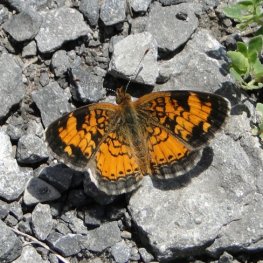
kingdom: Animalia
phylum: Arthropoda
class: Insecta
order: Lepidoptera
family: Nymphalidae
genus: Phyciodes
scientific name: Phyciodes tharos
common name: Northern Crescent
